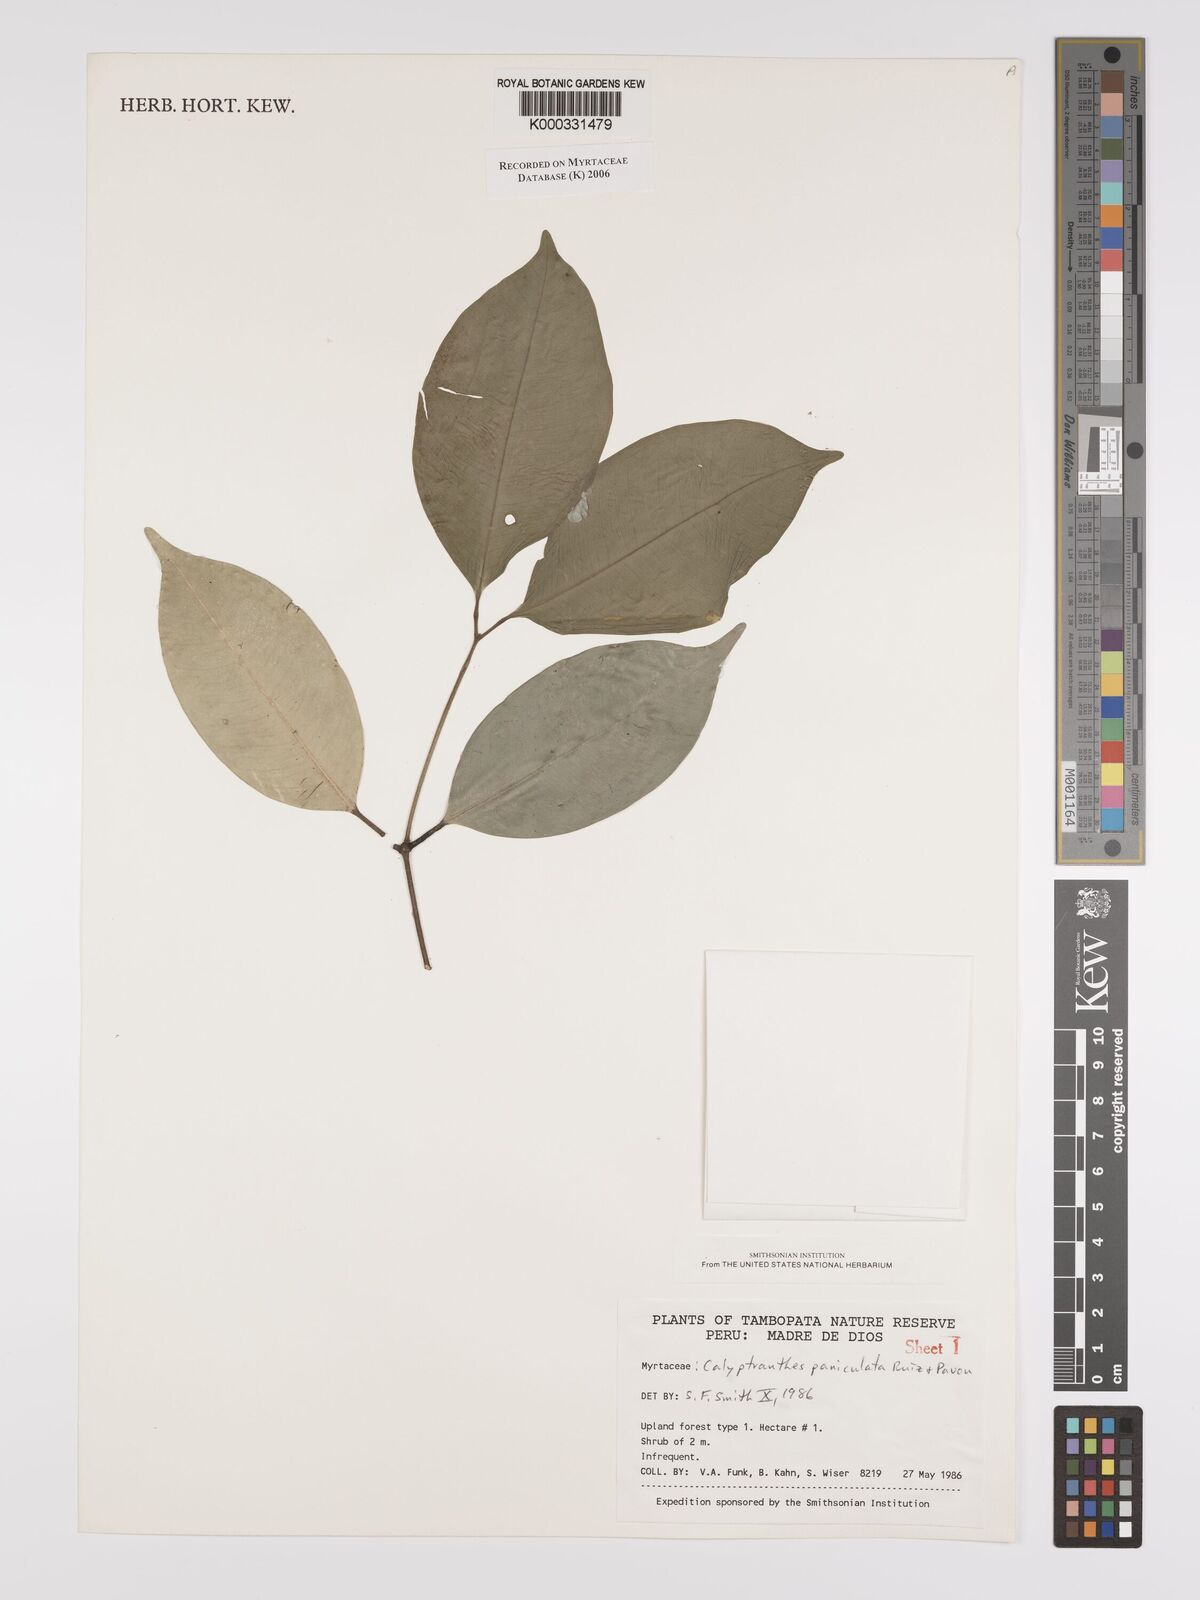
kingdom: Plantae
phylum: Tracheophyta
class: Magnoliopsida
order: Myrtales
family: Myrtaceae
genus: Calyptranthes
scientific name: Calyptranthes
